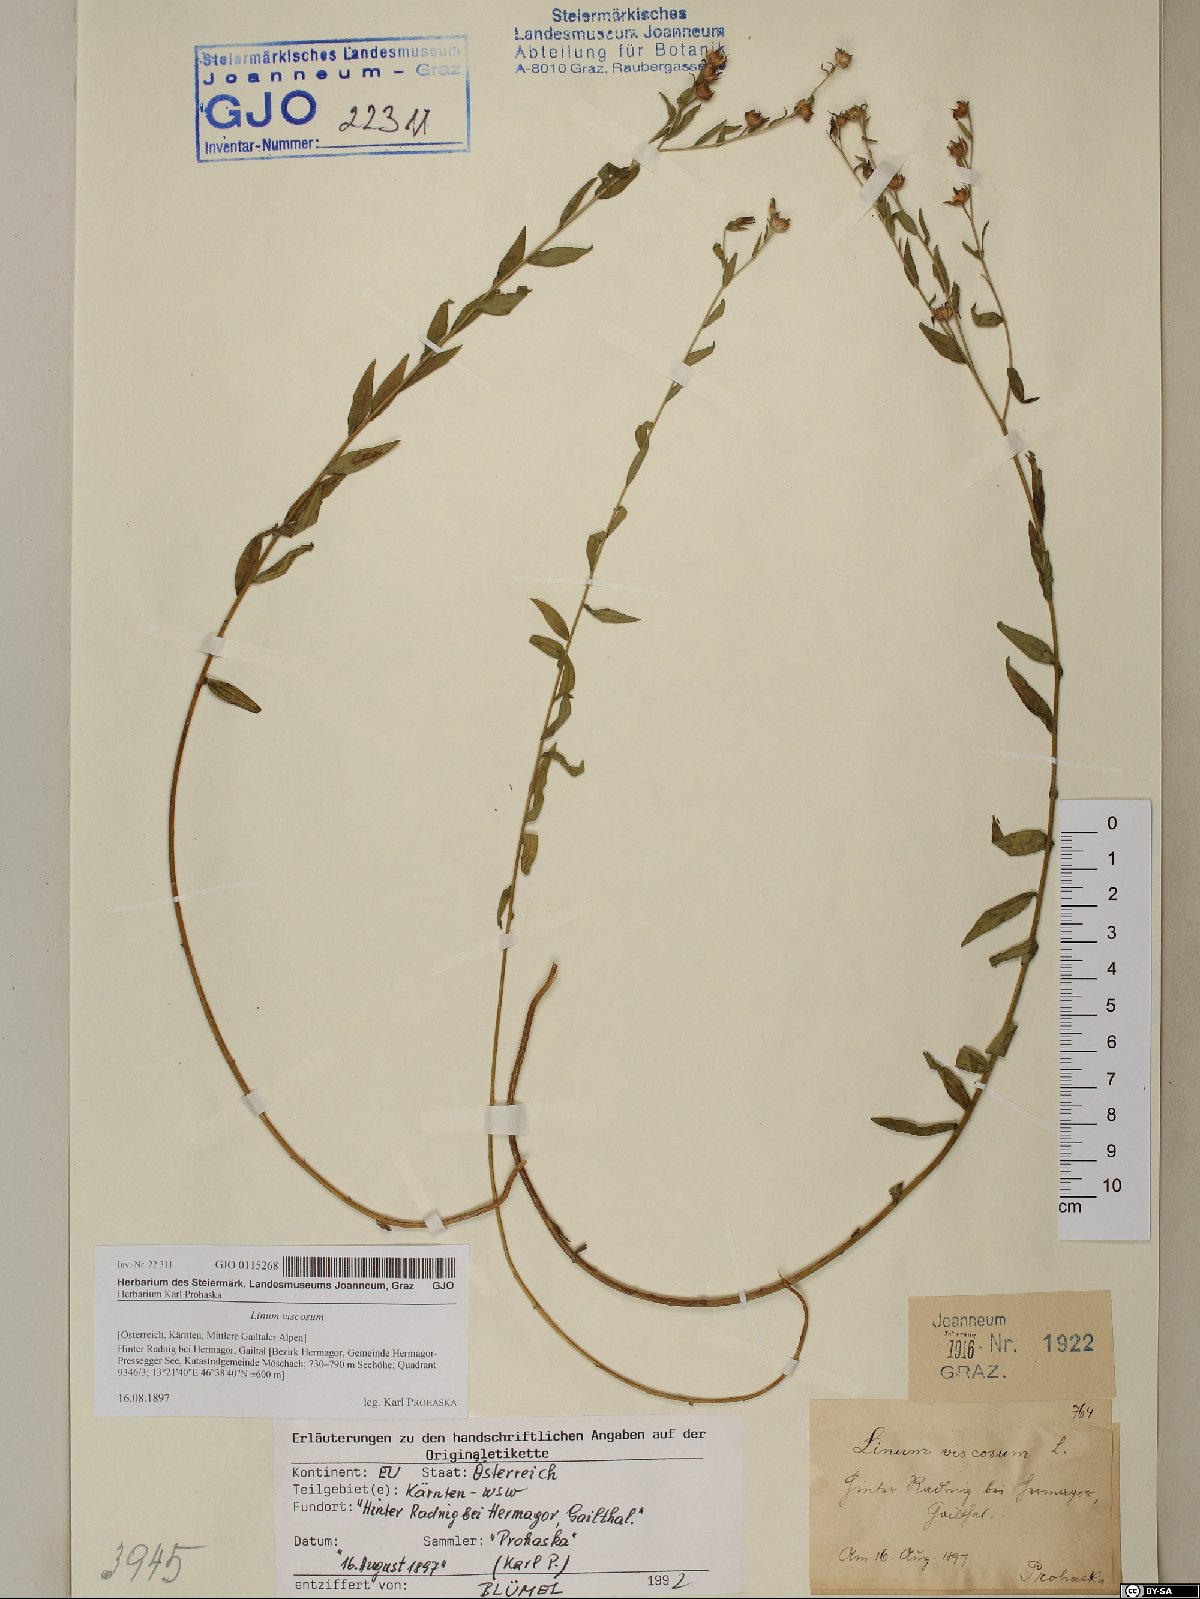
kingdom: Plantae
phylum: Tracheophyta
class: Magnoliopsida
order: Malpighiales
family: Linaceae
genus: Linum
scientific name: Linum viscosum
